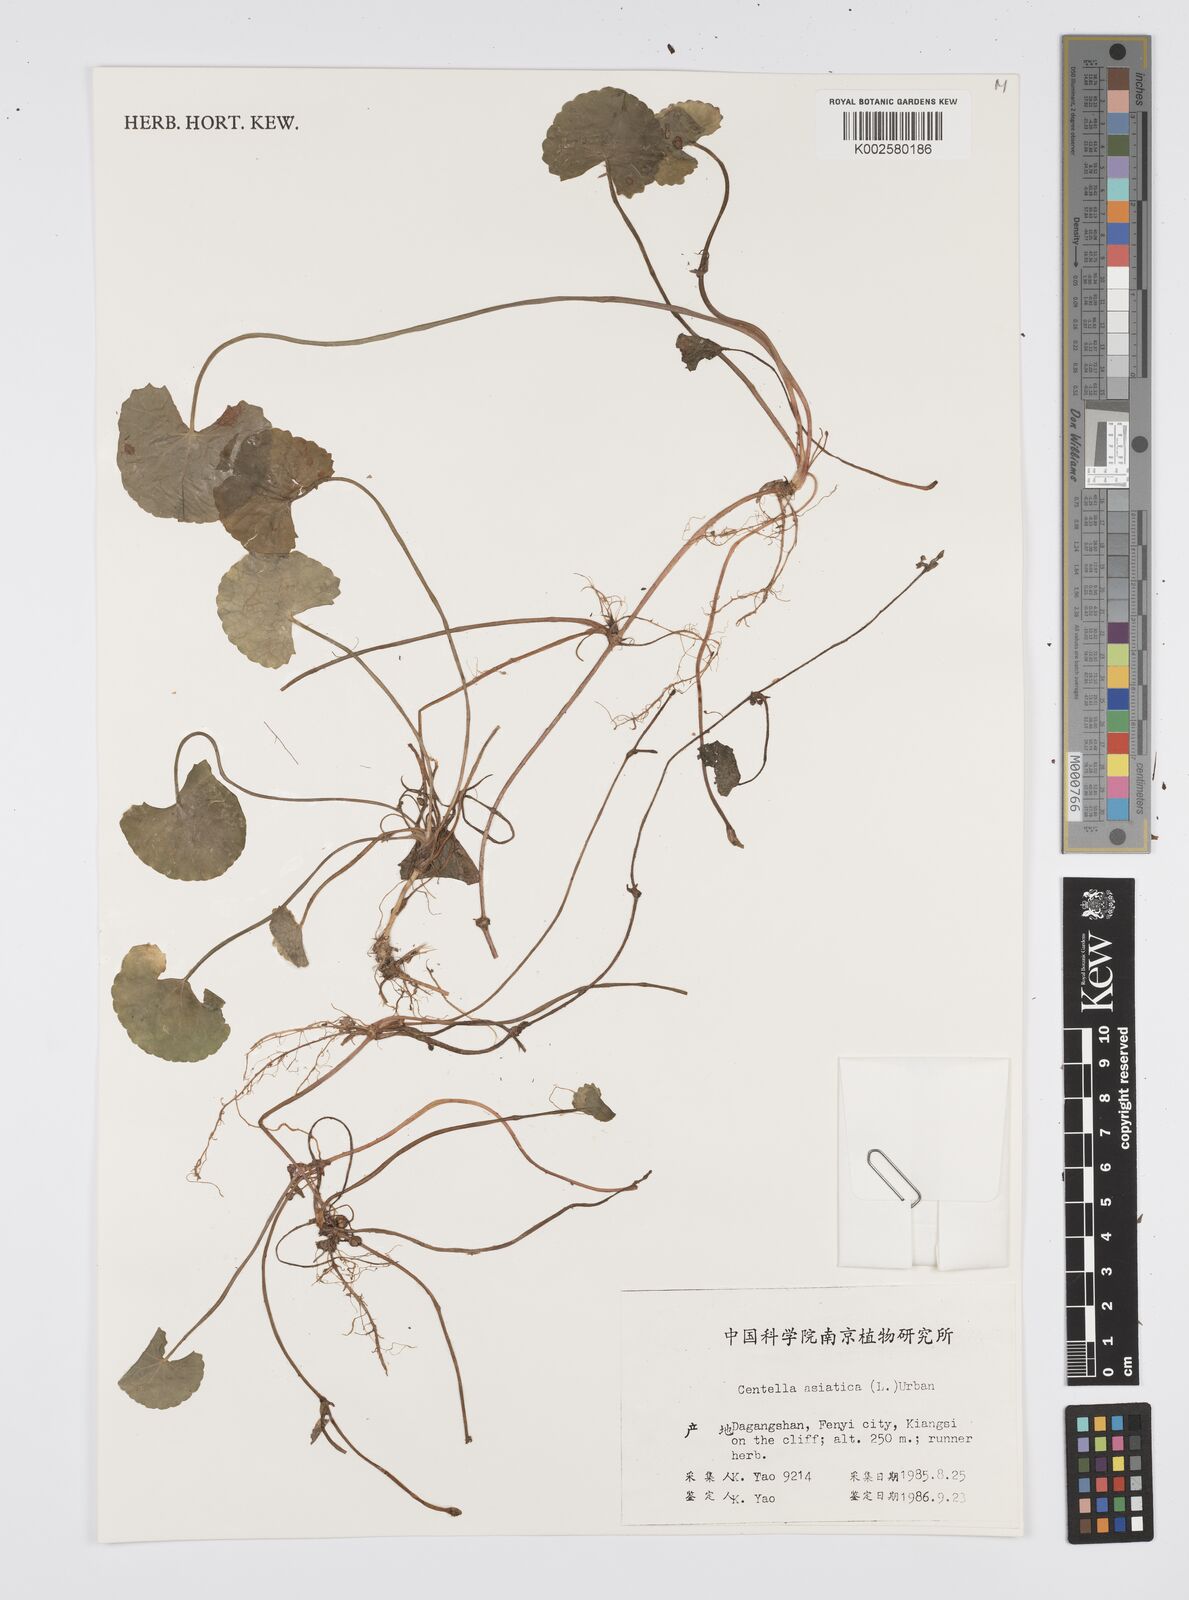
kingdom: Plantae
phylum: Tracheophyta
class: Magnoliopsida
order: Apiales
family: Apiaceae
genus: Centella
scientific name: Centella
